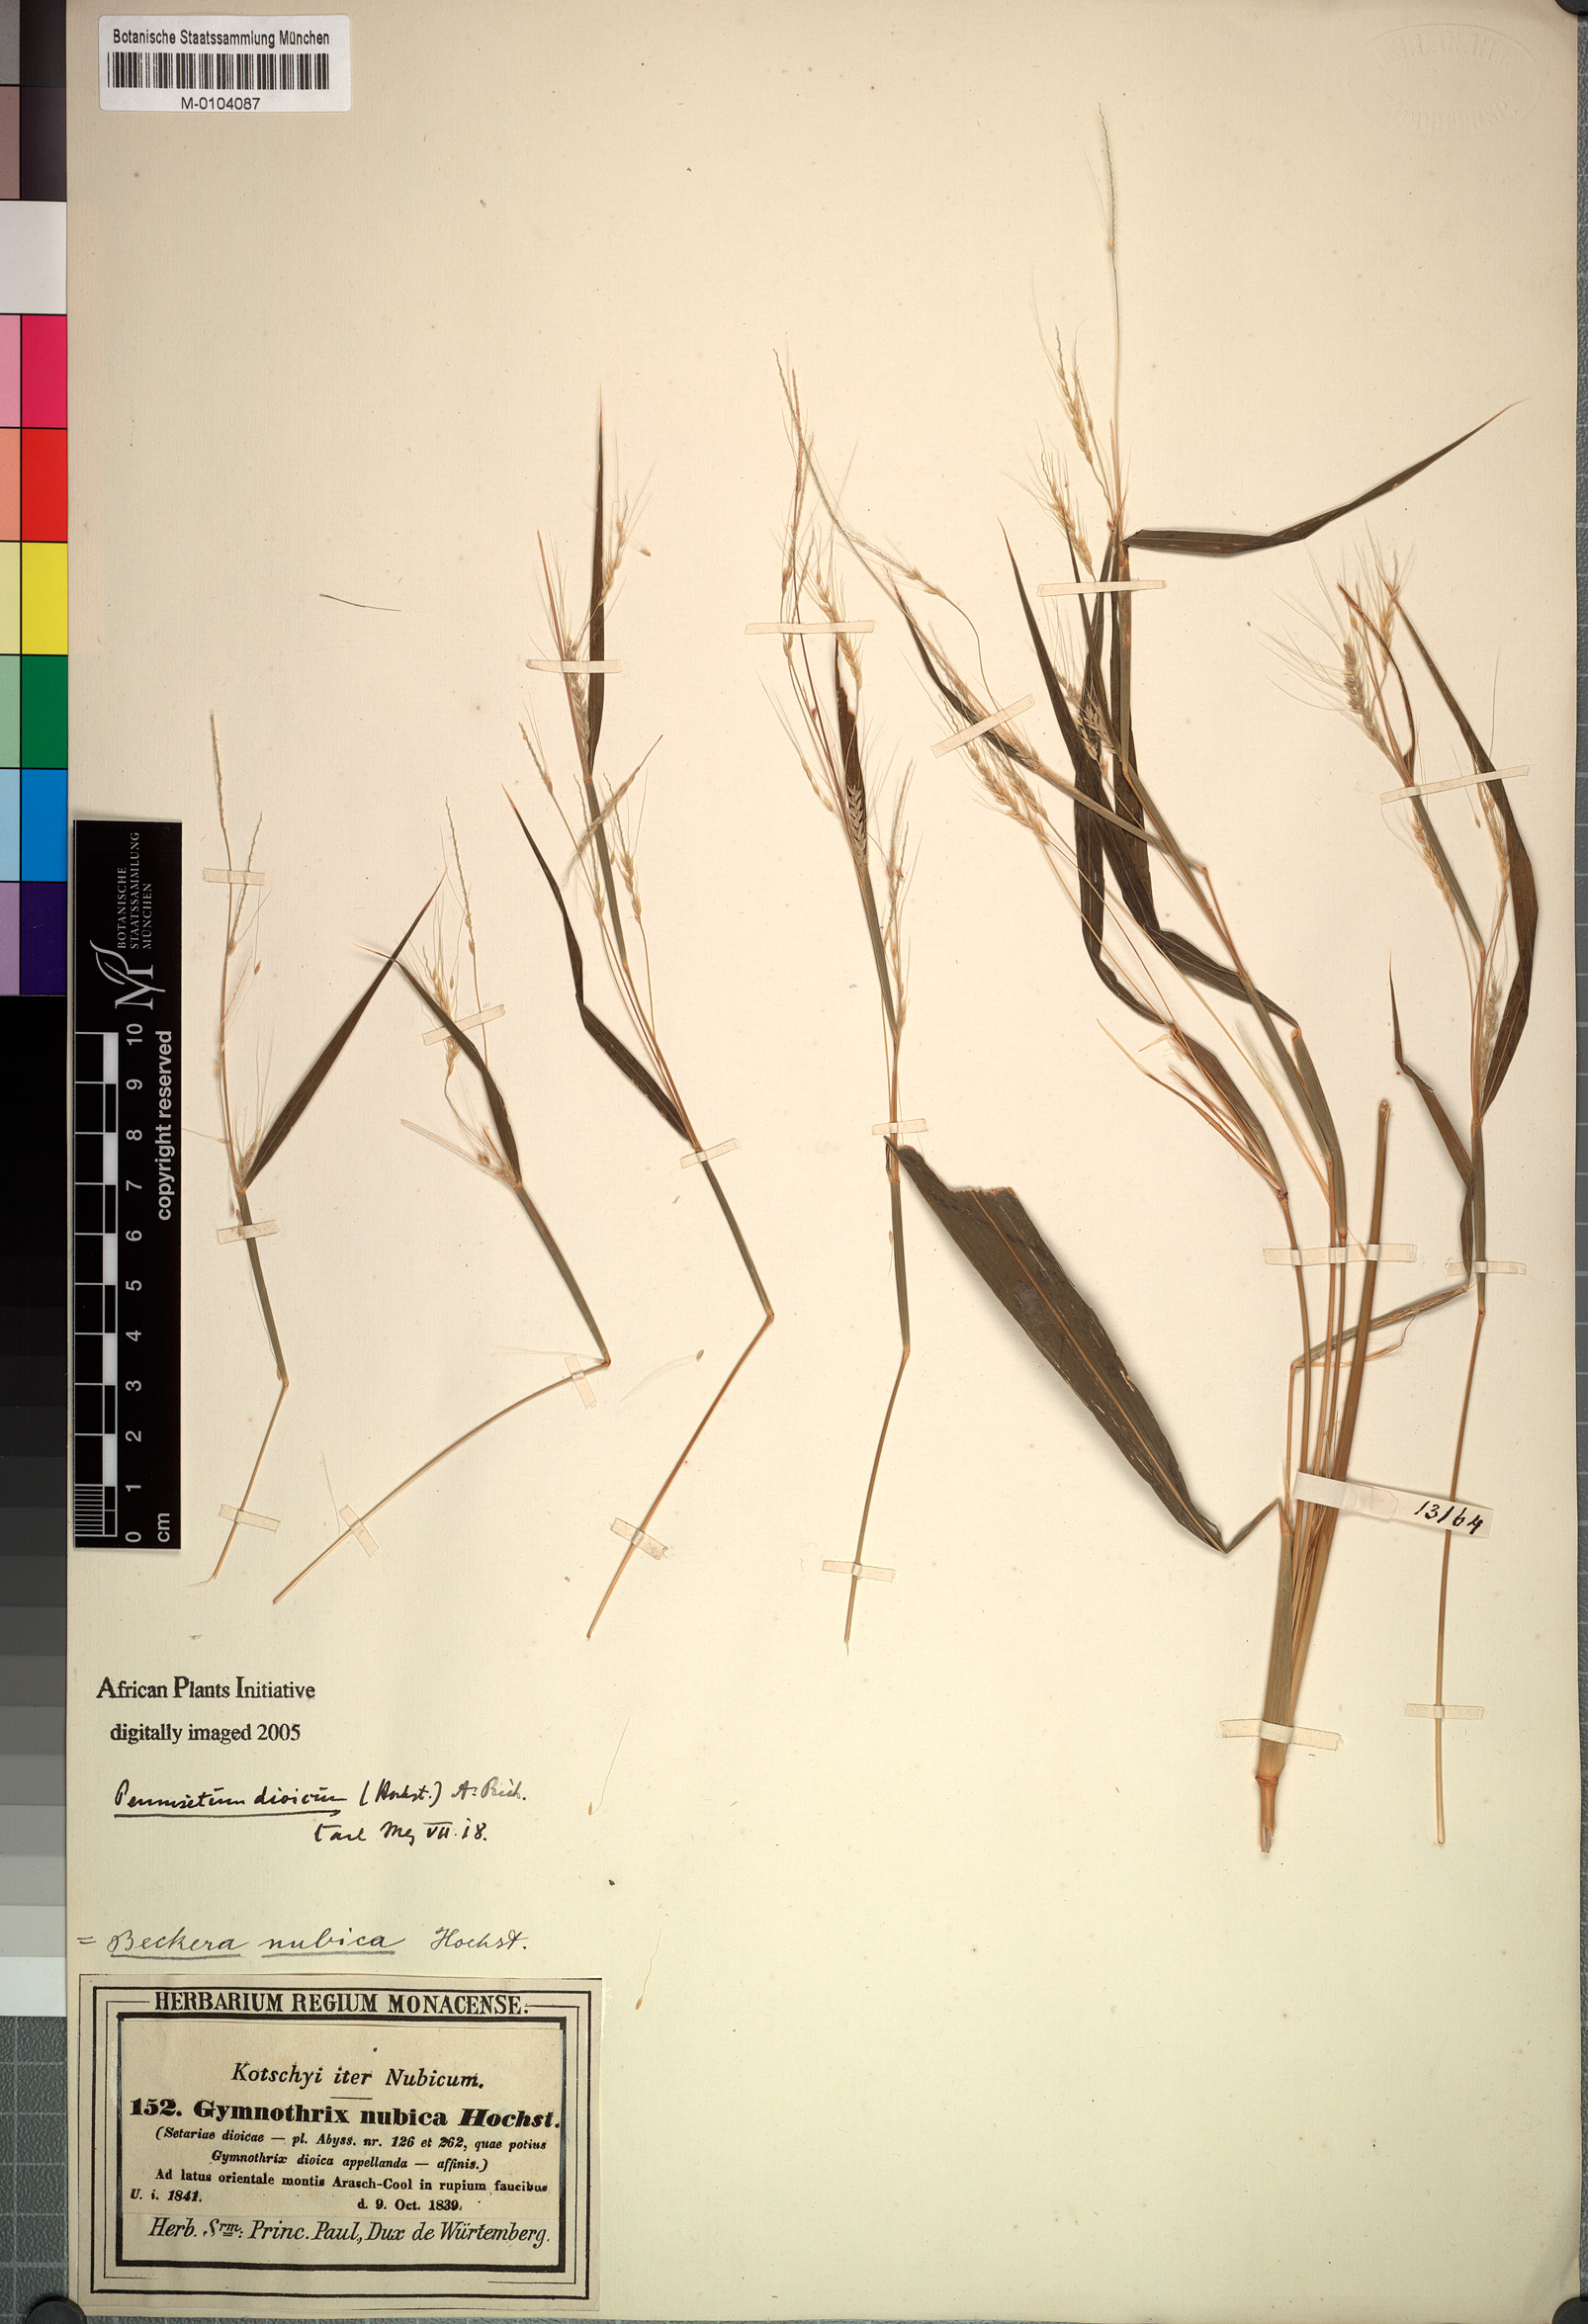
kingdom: Plantae
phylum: Tracheophyta
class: Liliopsida
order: Poales
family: Poaceae
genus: Cenchrus
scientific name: Cenchrus nubicus
